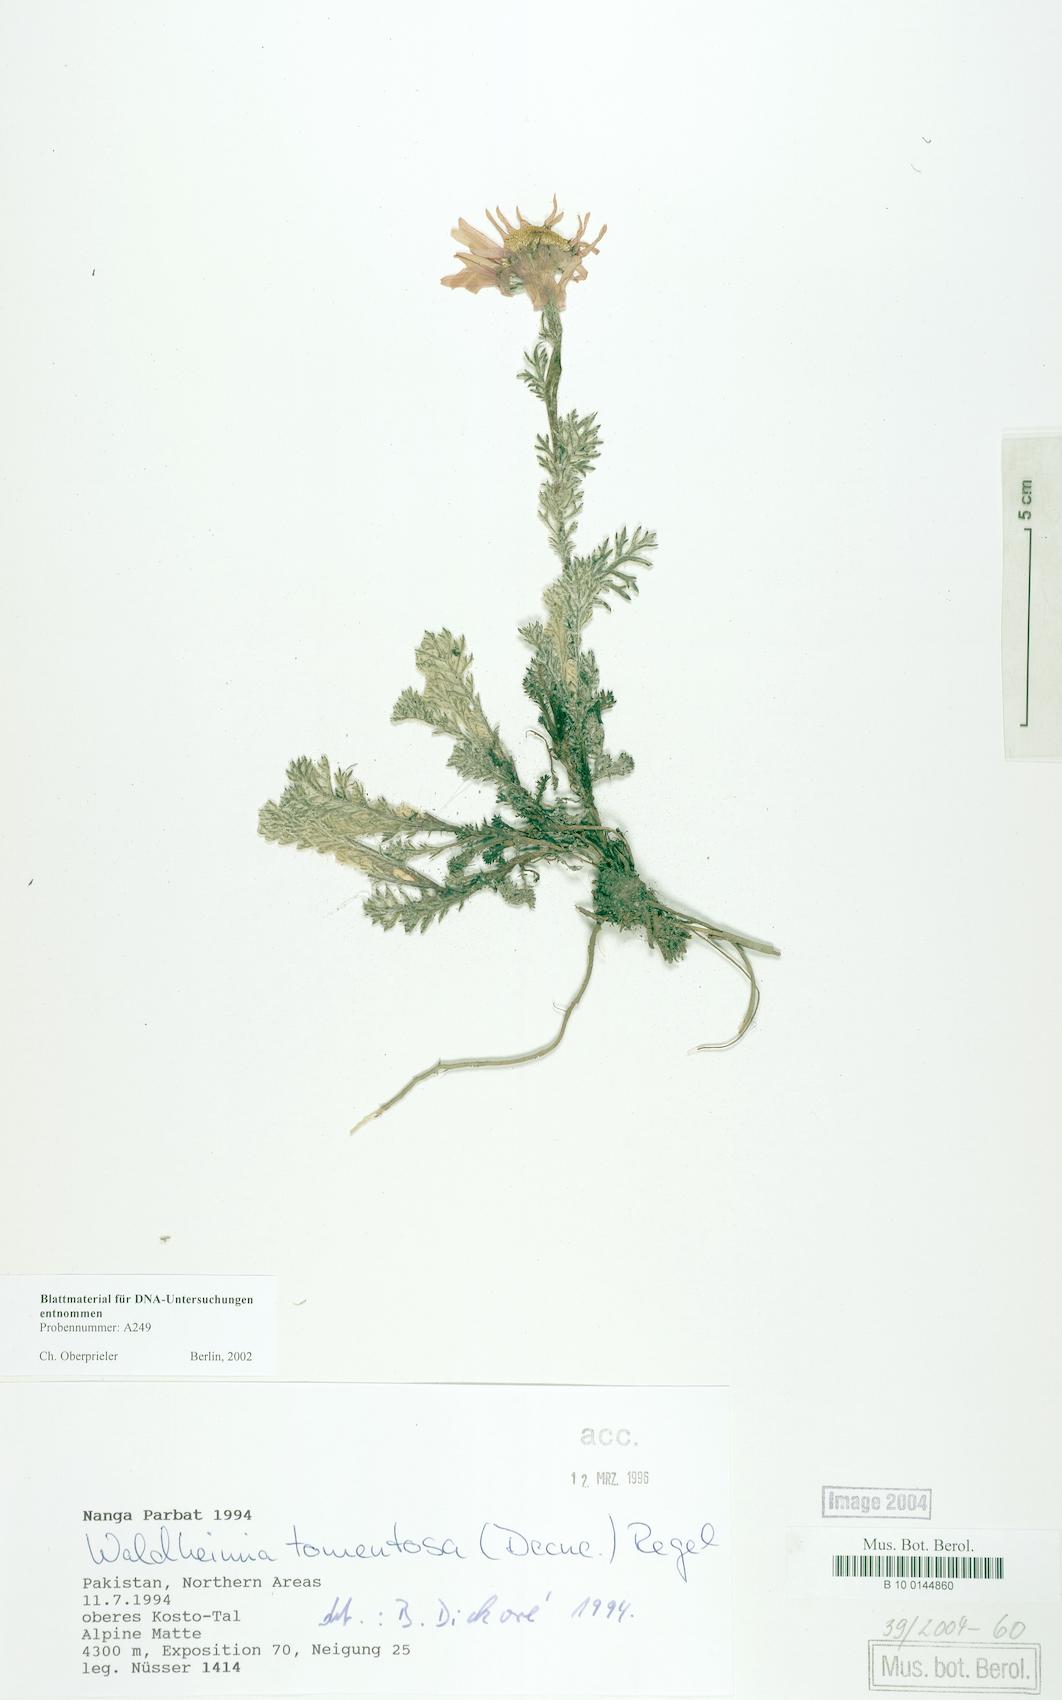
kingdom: Plantae
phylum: Tracheophyta
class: Magnoliopsida
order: Asterales
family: Asteraceae
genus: Allardia
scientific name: Allardia tomentosa
